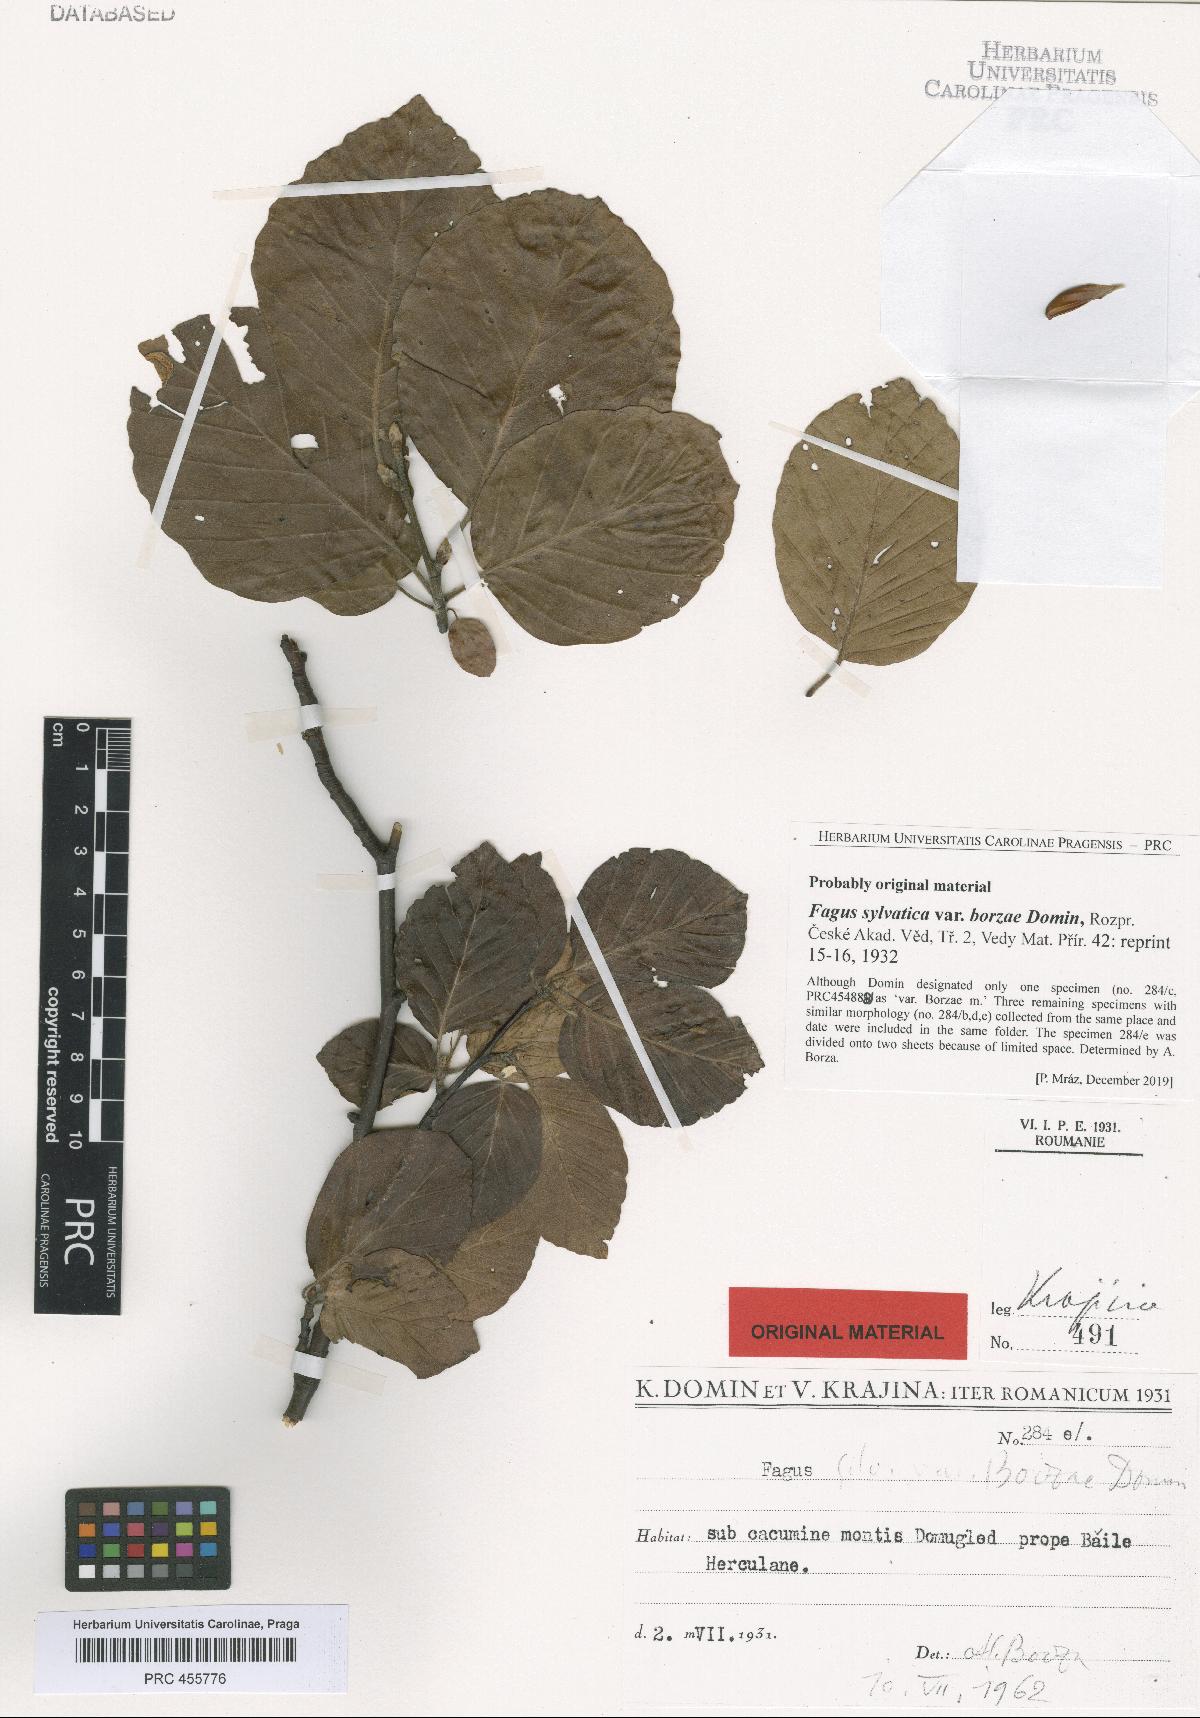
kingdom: Plantae
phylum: Tracheophyta
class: Magnoliopsida
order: Fagales
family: Fagaceae
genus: Fagus
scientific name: Fagus sylvatica
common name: Beech
